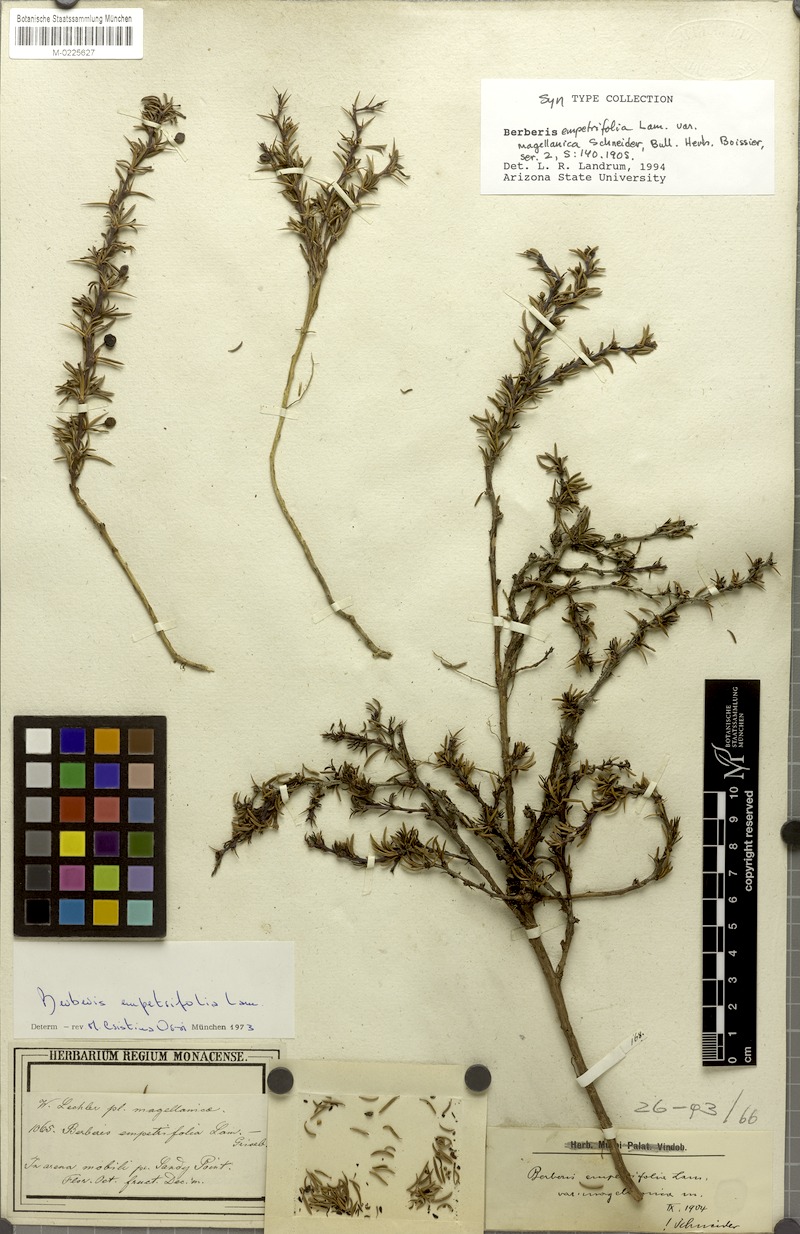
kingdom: Plantae
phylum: Tracheophyta
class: Magnoliopsida
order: Ranunculales
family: Berberidaceae
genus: Berberis
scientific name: Berberis empetrifolia
